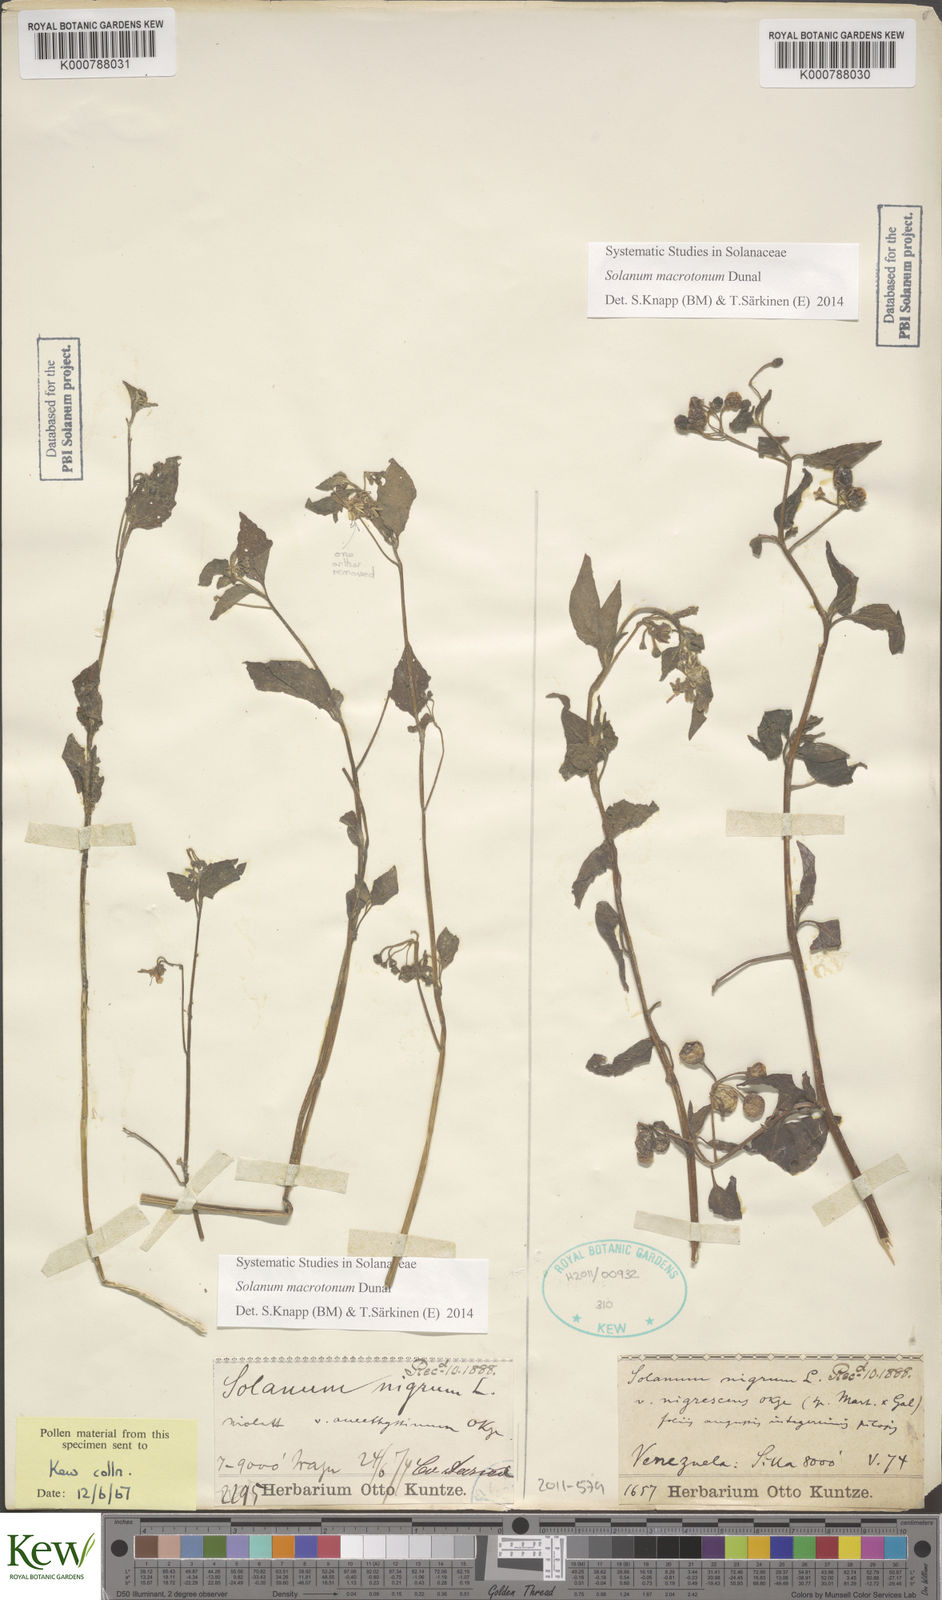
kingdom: Plantae
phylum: Tracheophyta
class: Magnoliopsida
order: Solanales
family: Solanaceae
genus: Solanum
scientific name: Solanum nigrescens
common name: Divine nightshade
